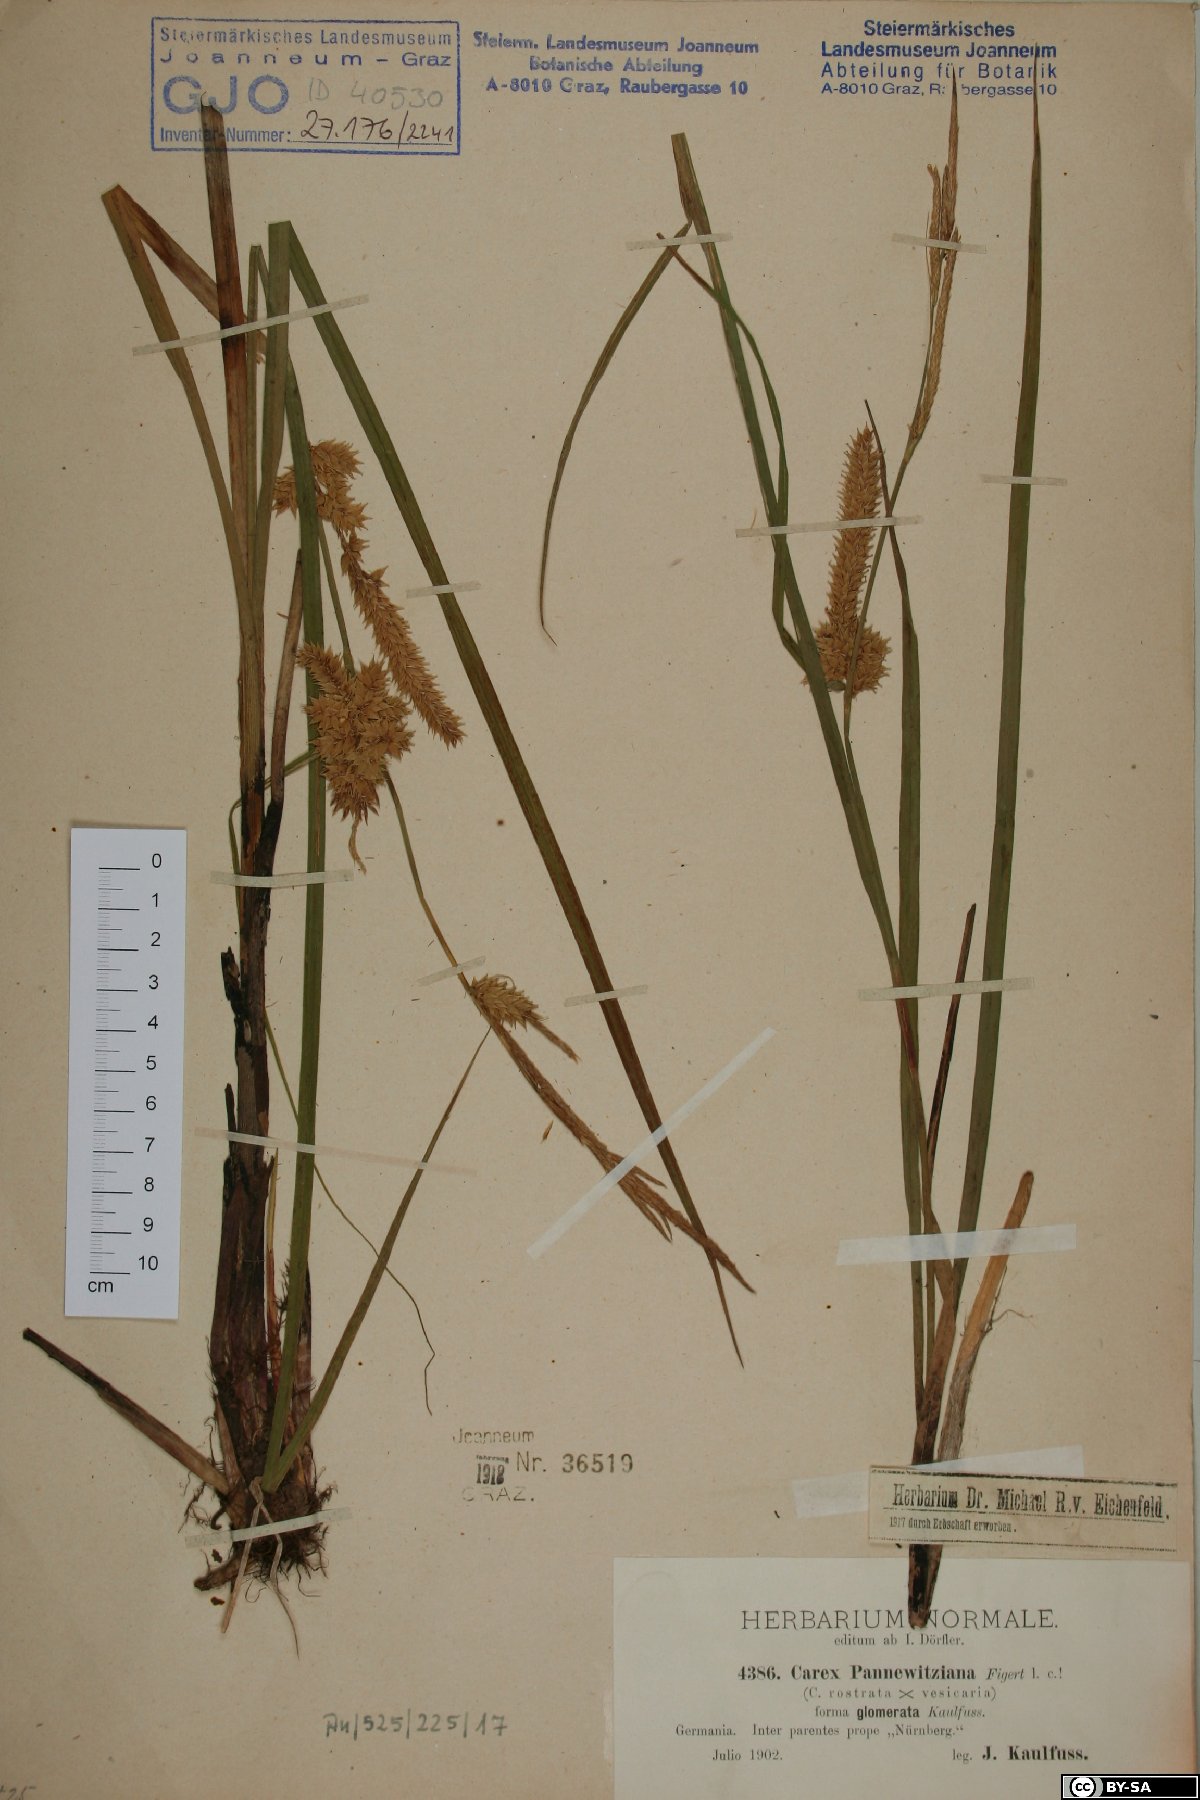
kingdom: Plantae
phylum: Tracheophyta
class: Liliopsida
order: Poales
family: Cyperaceae
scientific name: Cyperaceae
